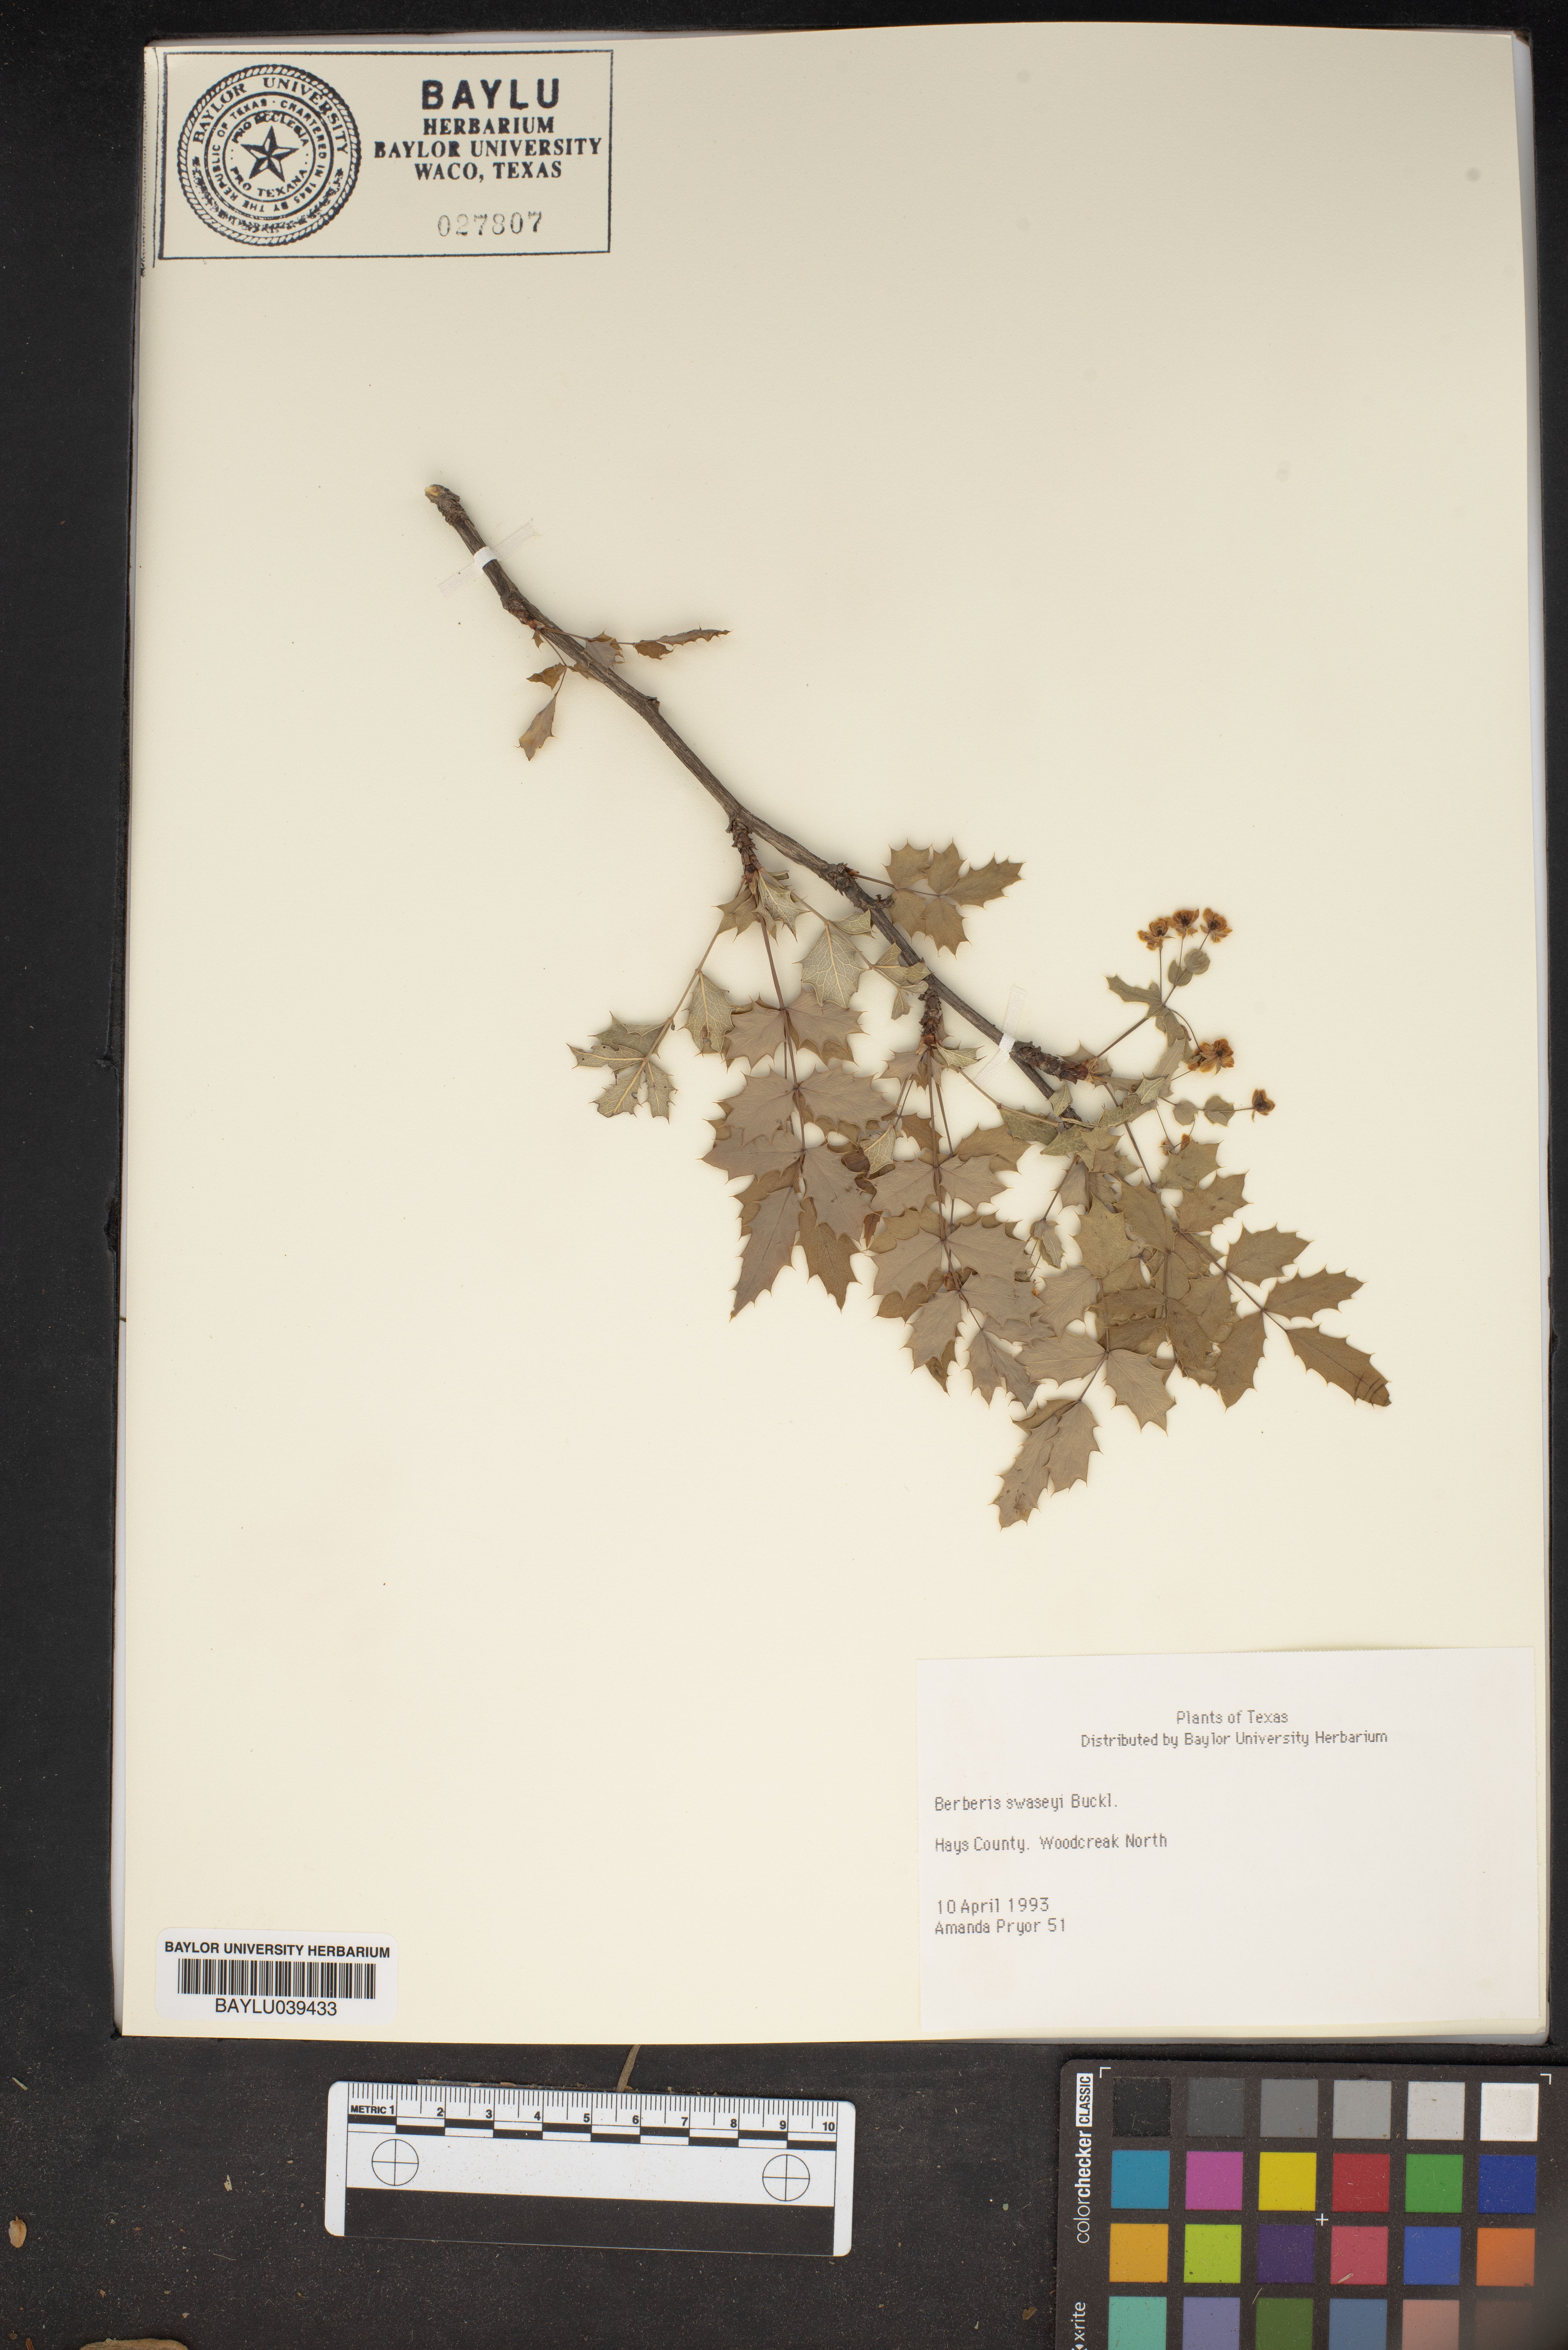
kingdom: Plantae
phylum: Tracheophyta
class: Magnoliopsida
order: Ranunculales
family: Berberidaceae
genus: Berberis
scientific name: Berberis swaseyi
